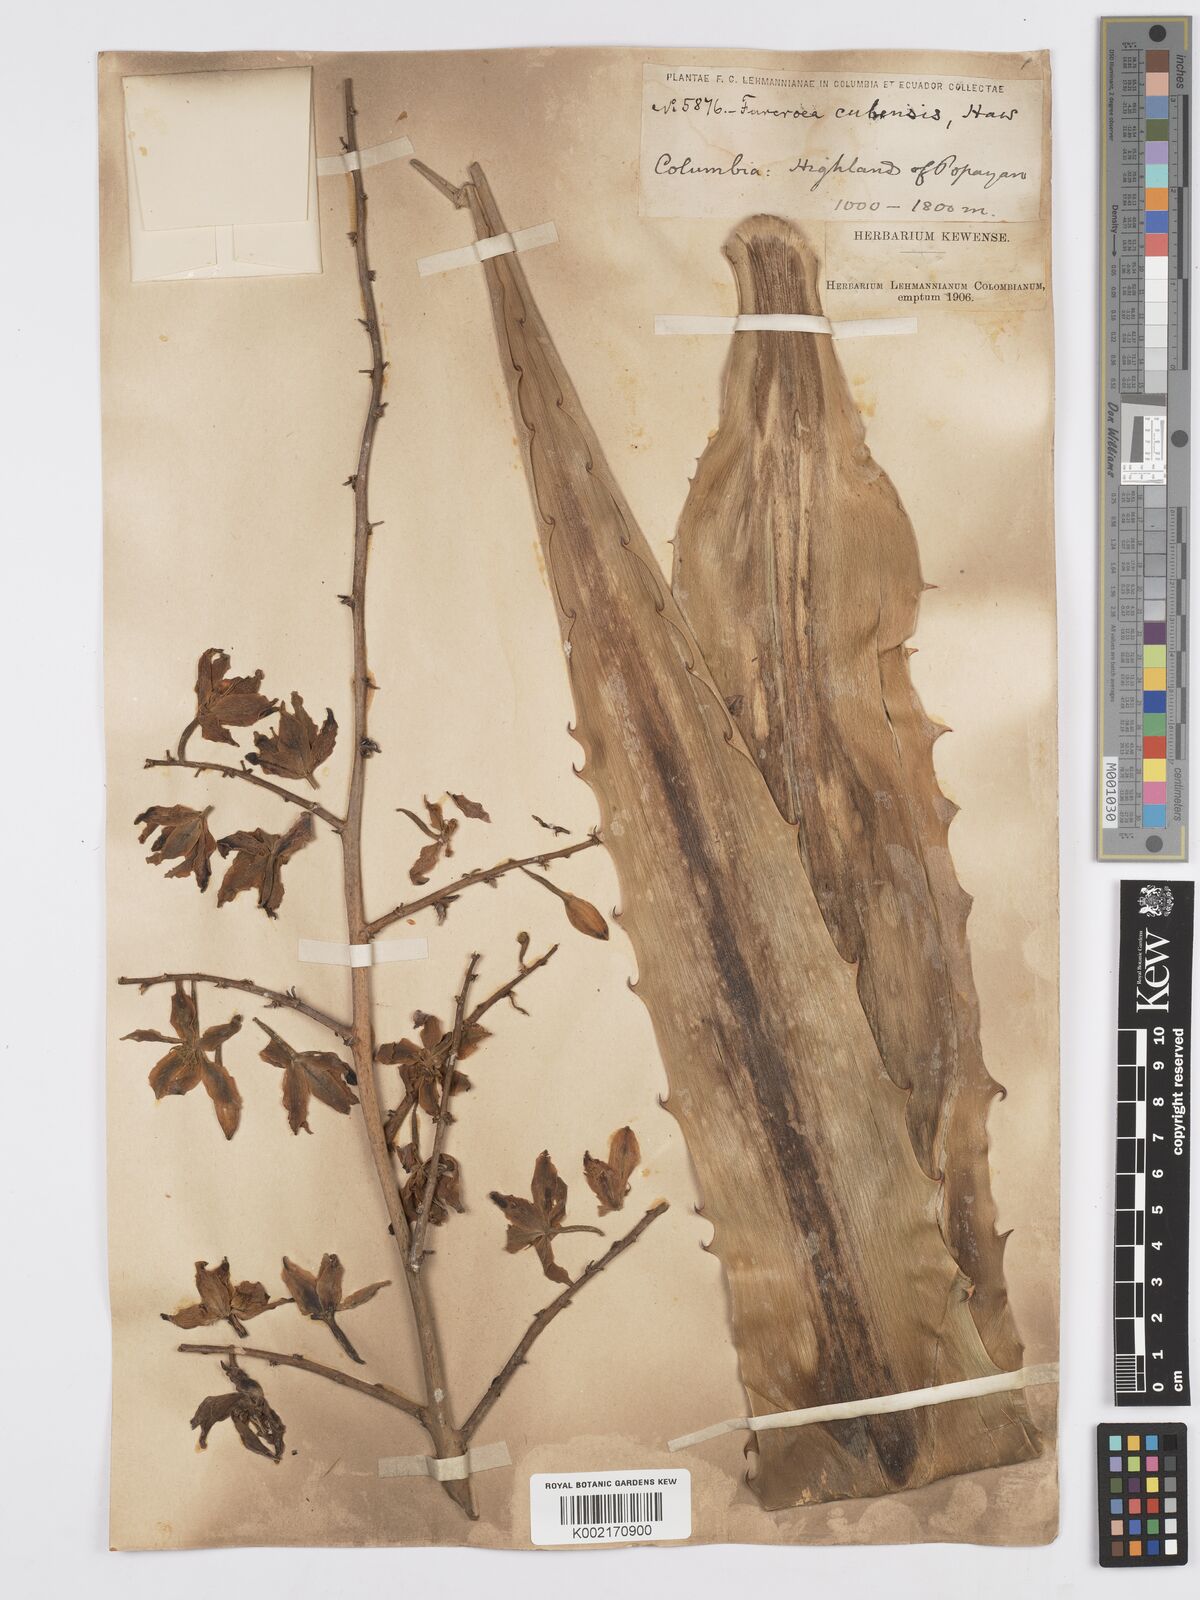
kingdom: Plantae
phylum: Tracheophyta
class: Liliopsida
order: Asparagales
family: Asparagaceae
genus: Furcraea
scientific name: Furcraea hexapetala
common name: Cuban-hemp
